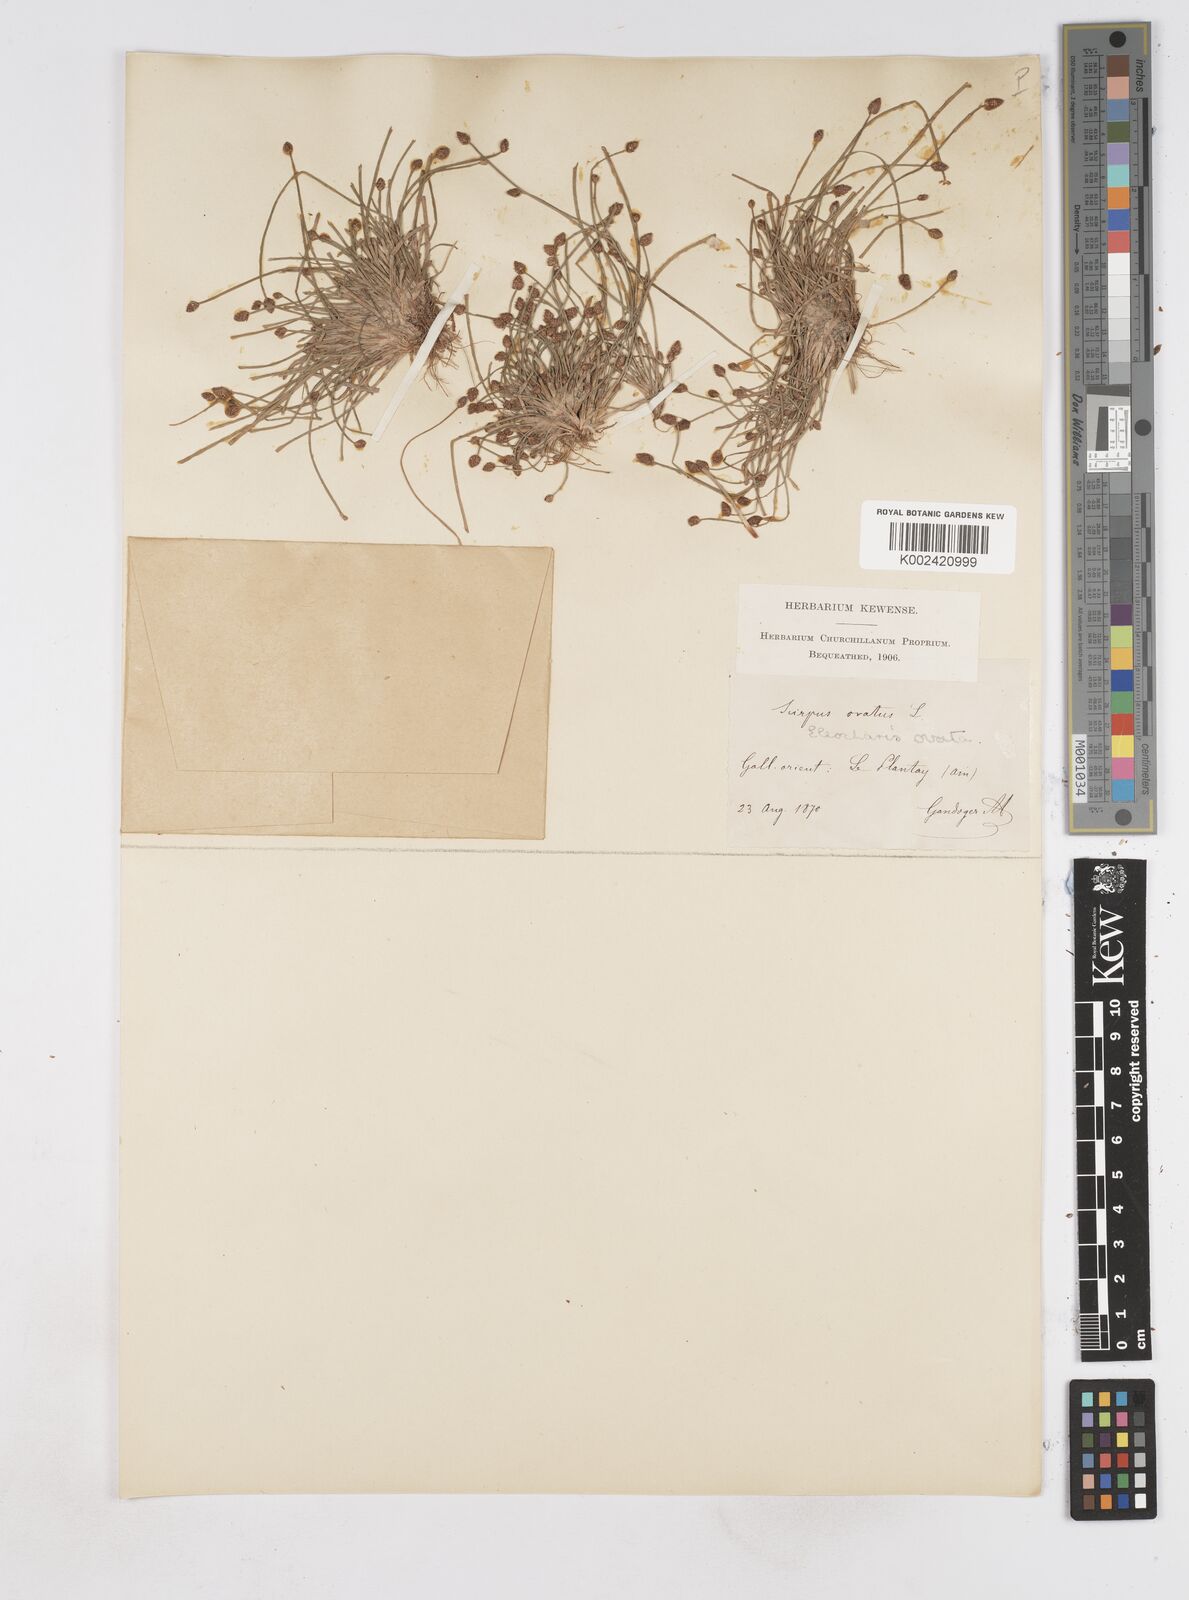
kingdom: Plantae
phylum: Tracheophyta
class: Liliopsida
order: Poales
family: Cyperaceae
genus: Eleocharis
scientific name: Eleocharis ovata
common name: Oval spike-rush
